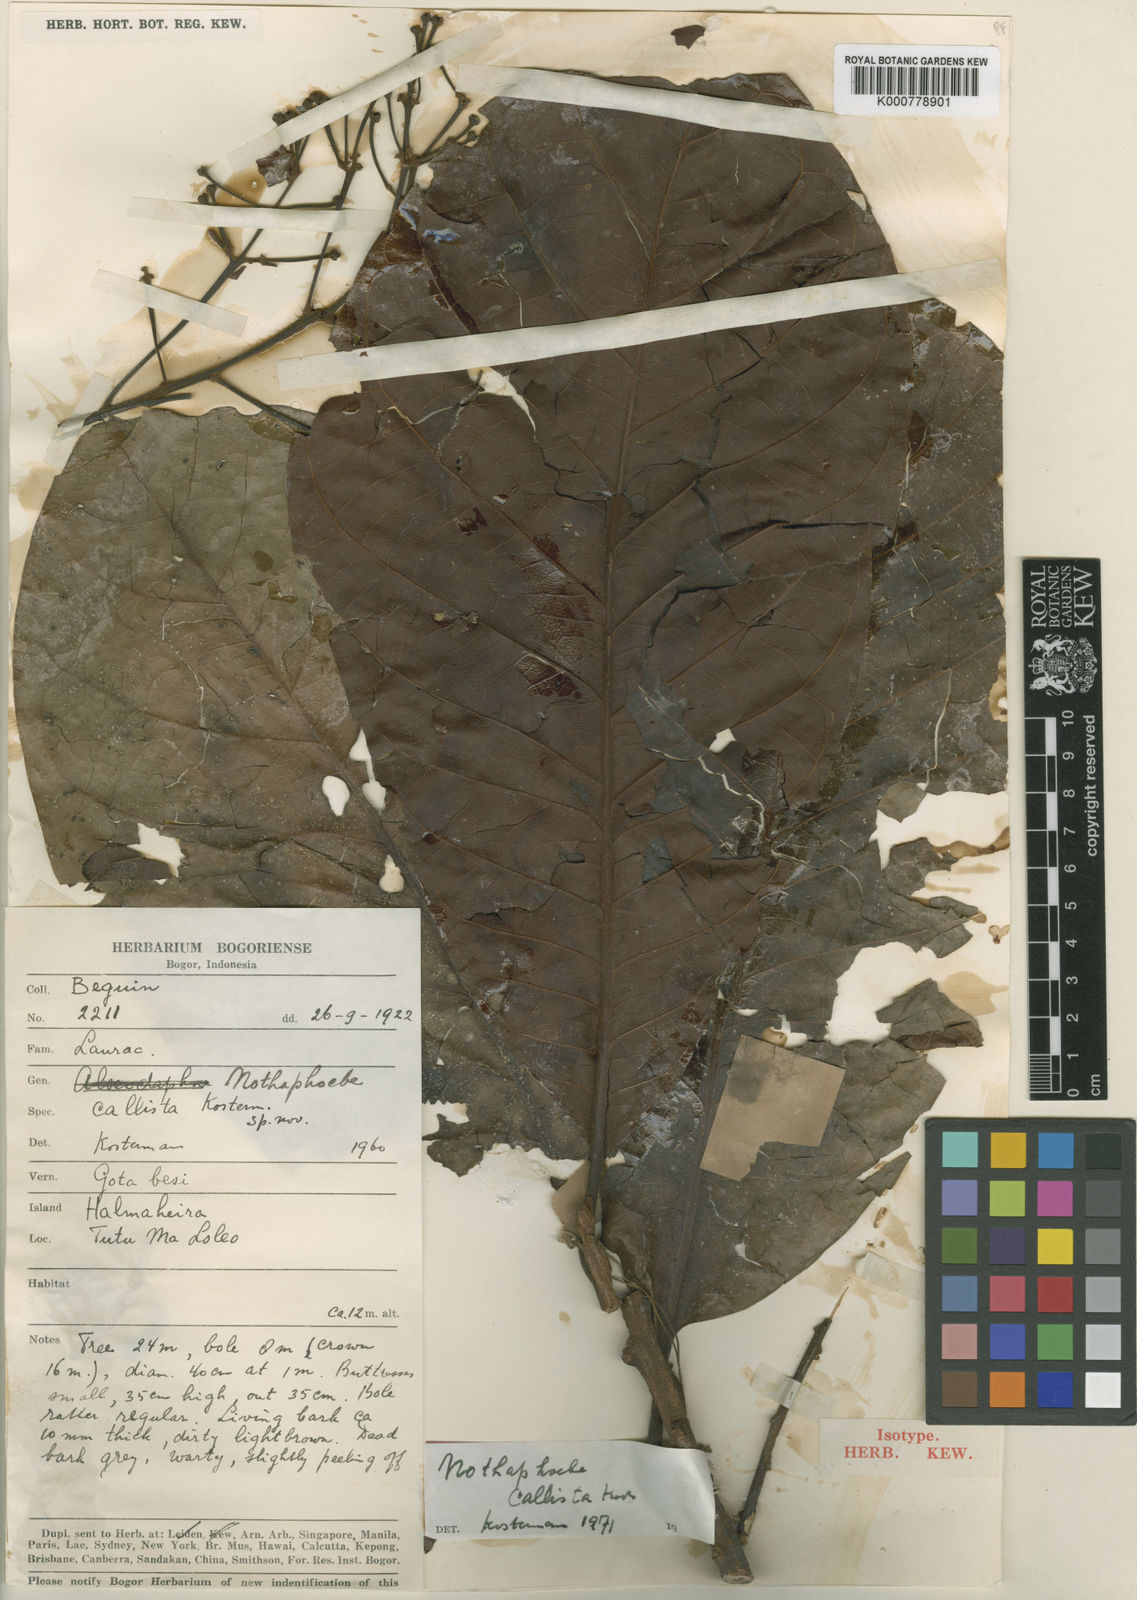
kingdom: Plantae
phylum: Tracheophyta
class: Magnoliopsida
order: Laurales
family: Lauraceae
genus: Nothaphoebe
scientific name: Nothaphoebe
